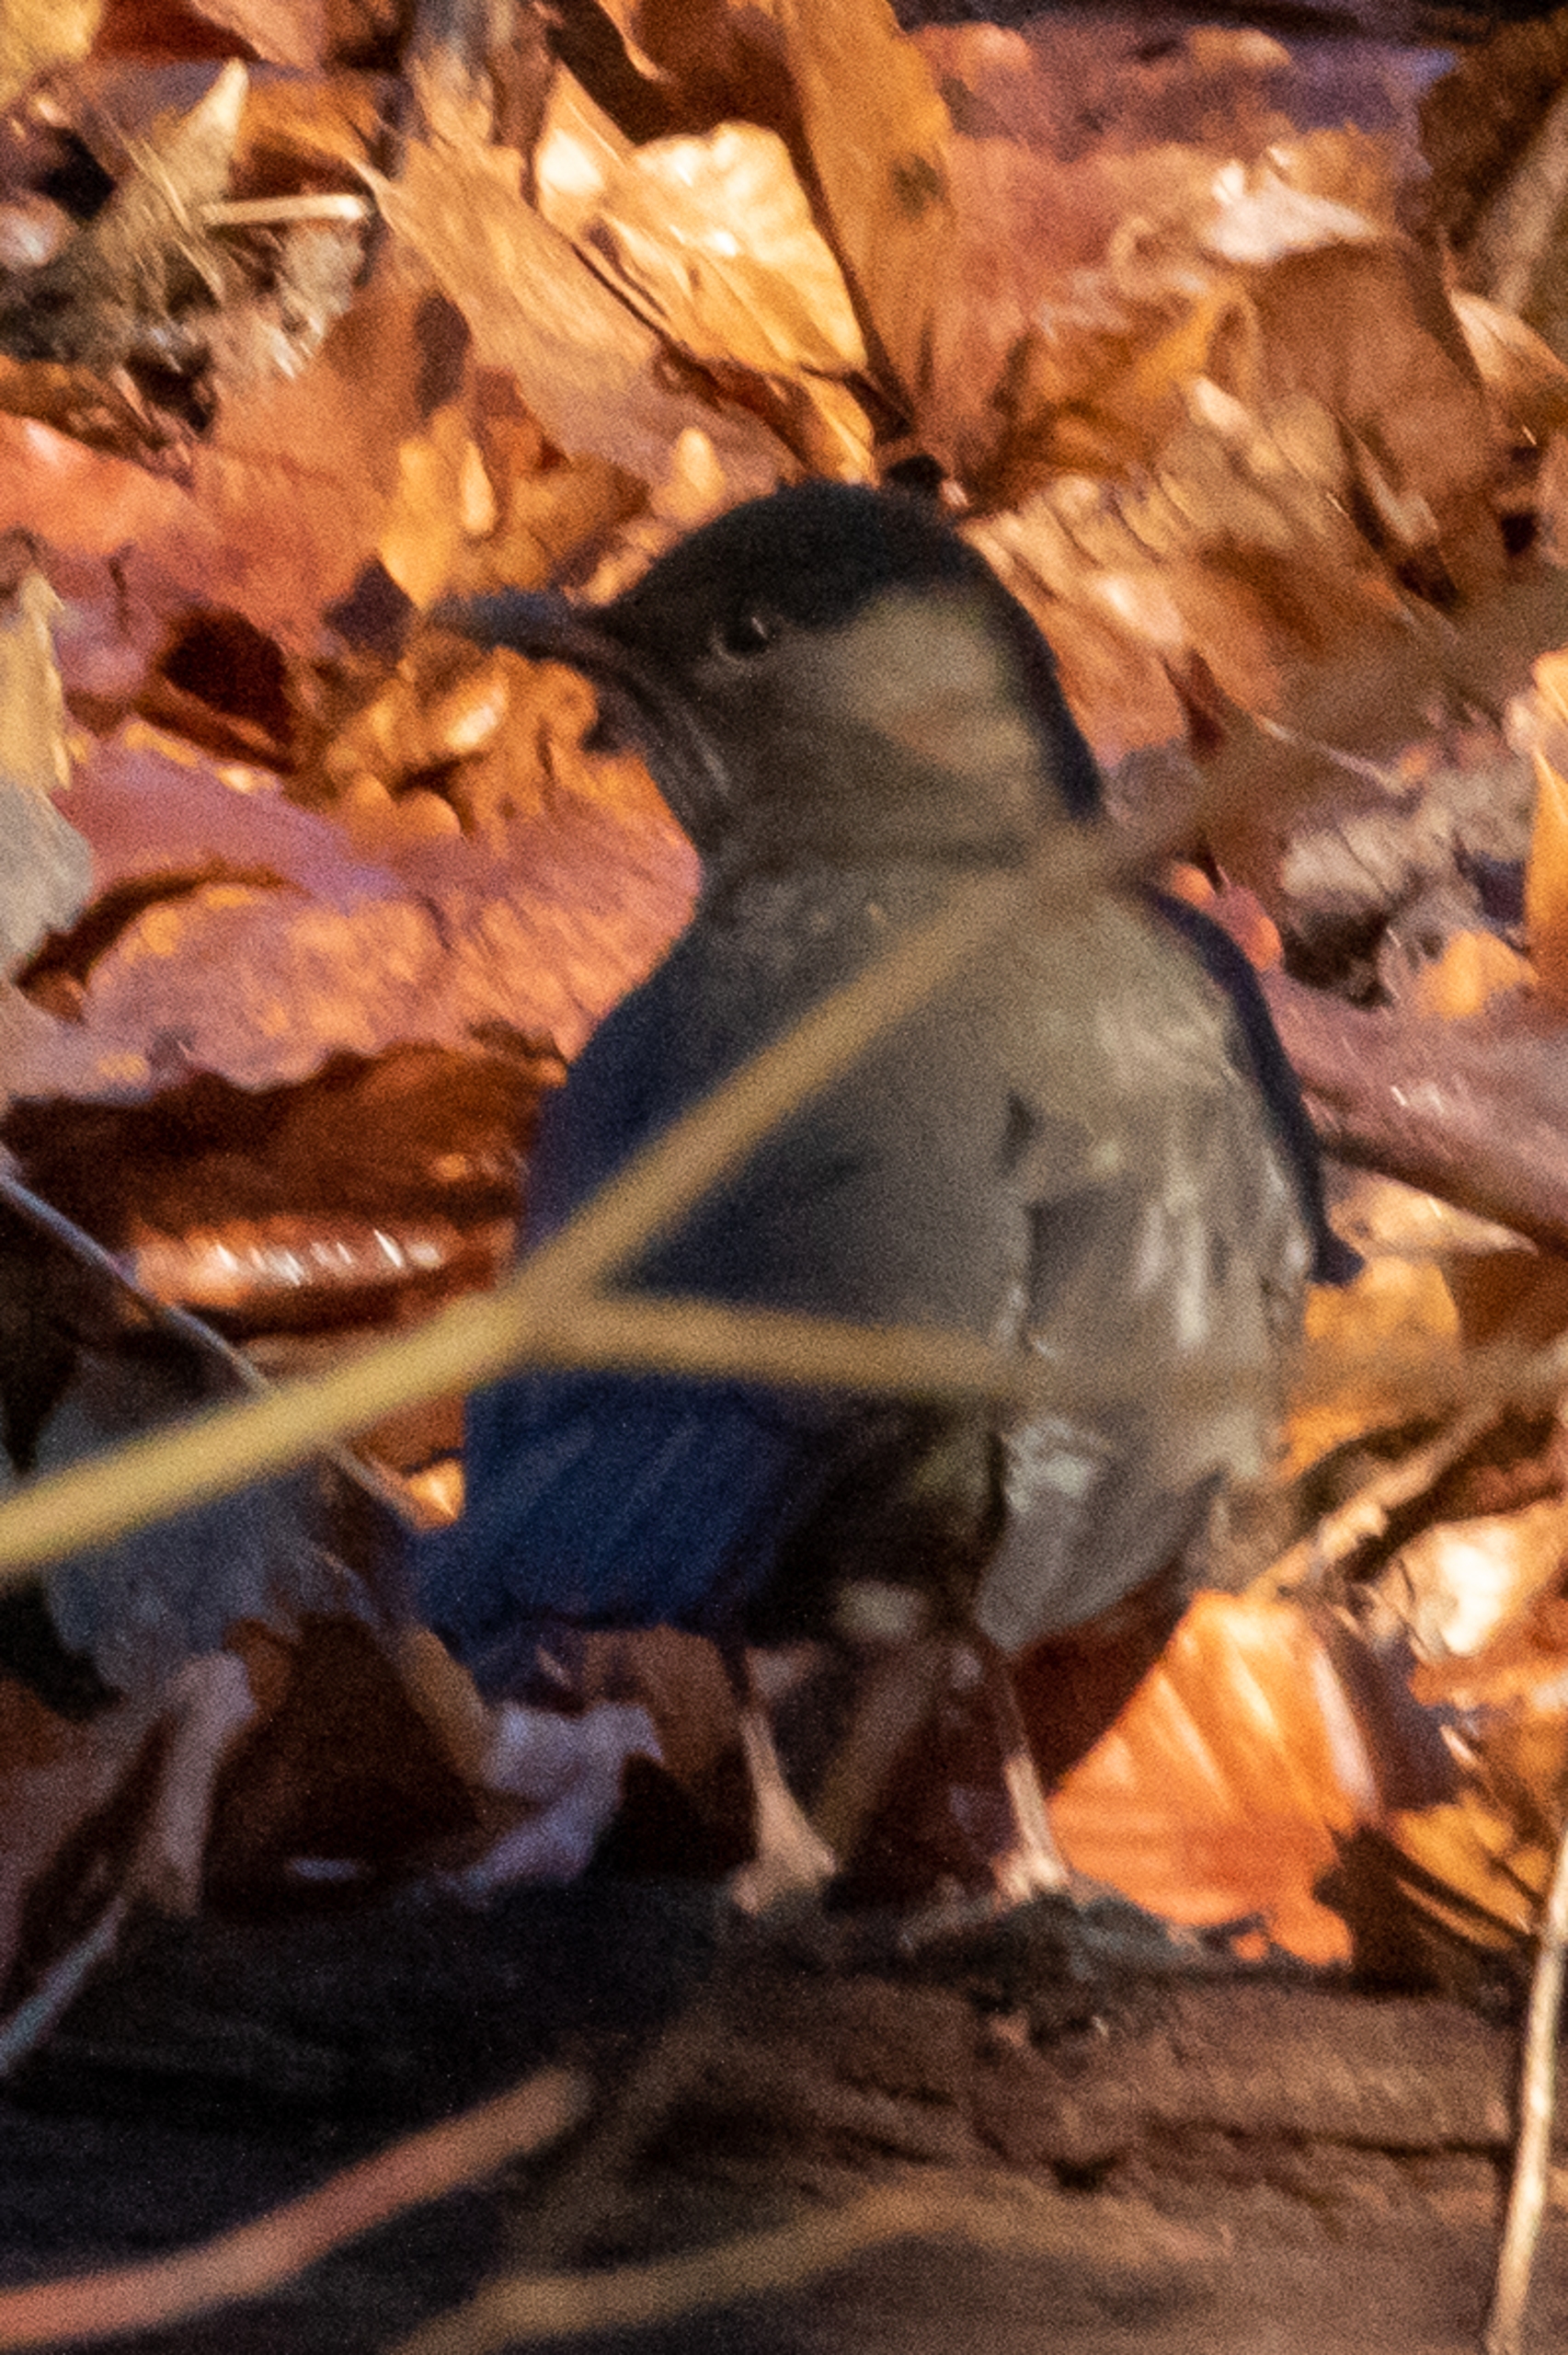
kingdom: Animalia
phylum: Chordata
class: Aves
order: Passeriformes
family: Turdidae
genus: Turdus
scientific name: Turdus merula
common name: Solsort
